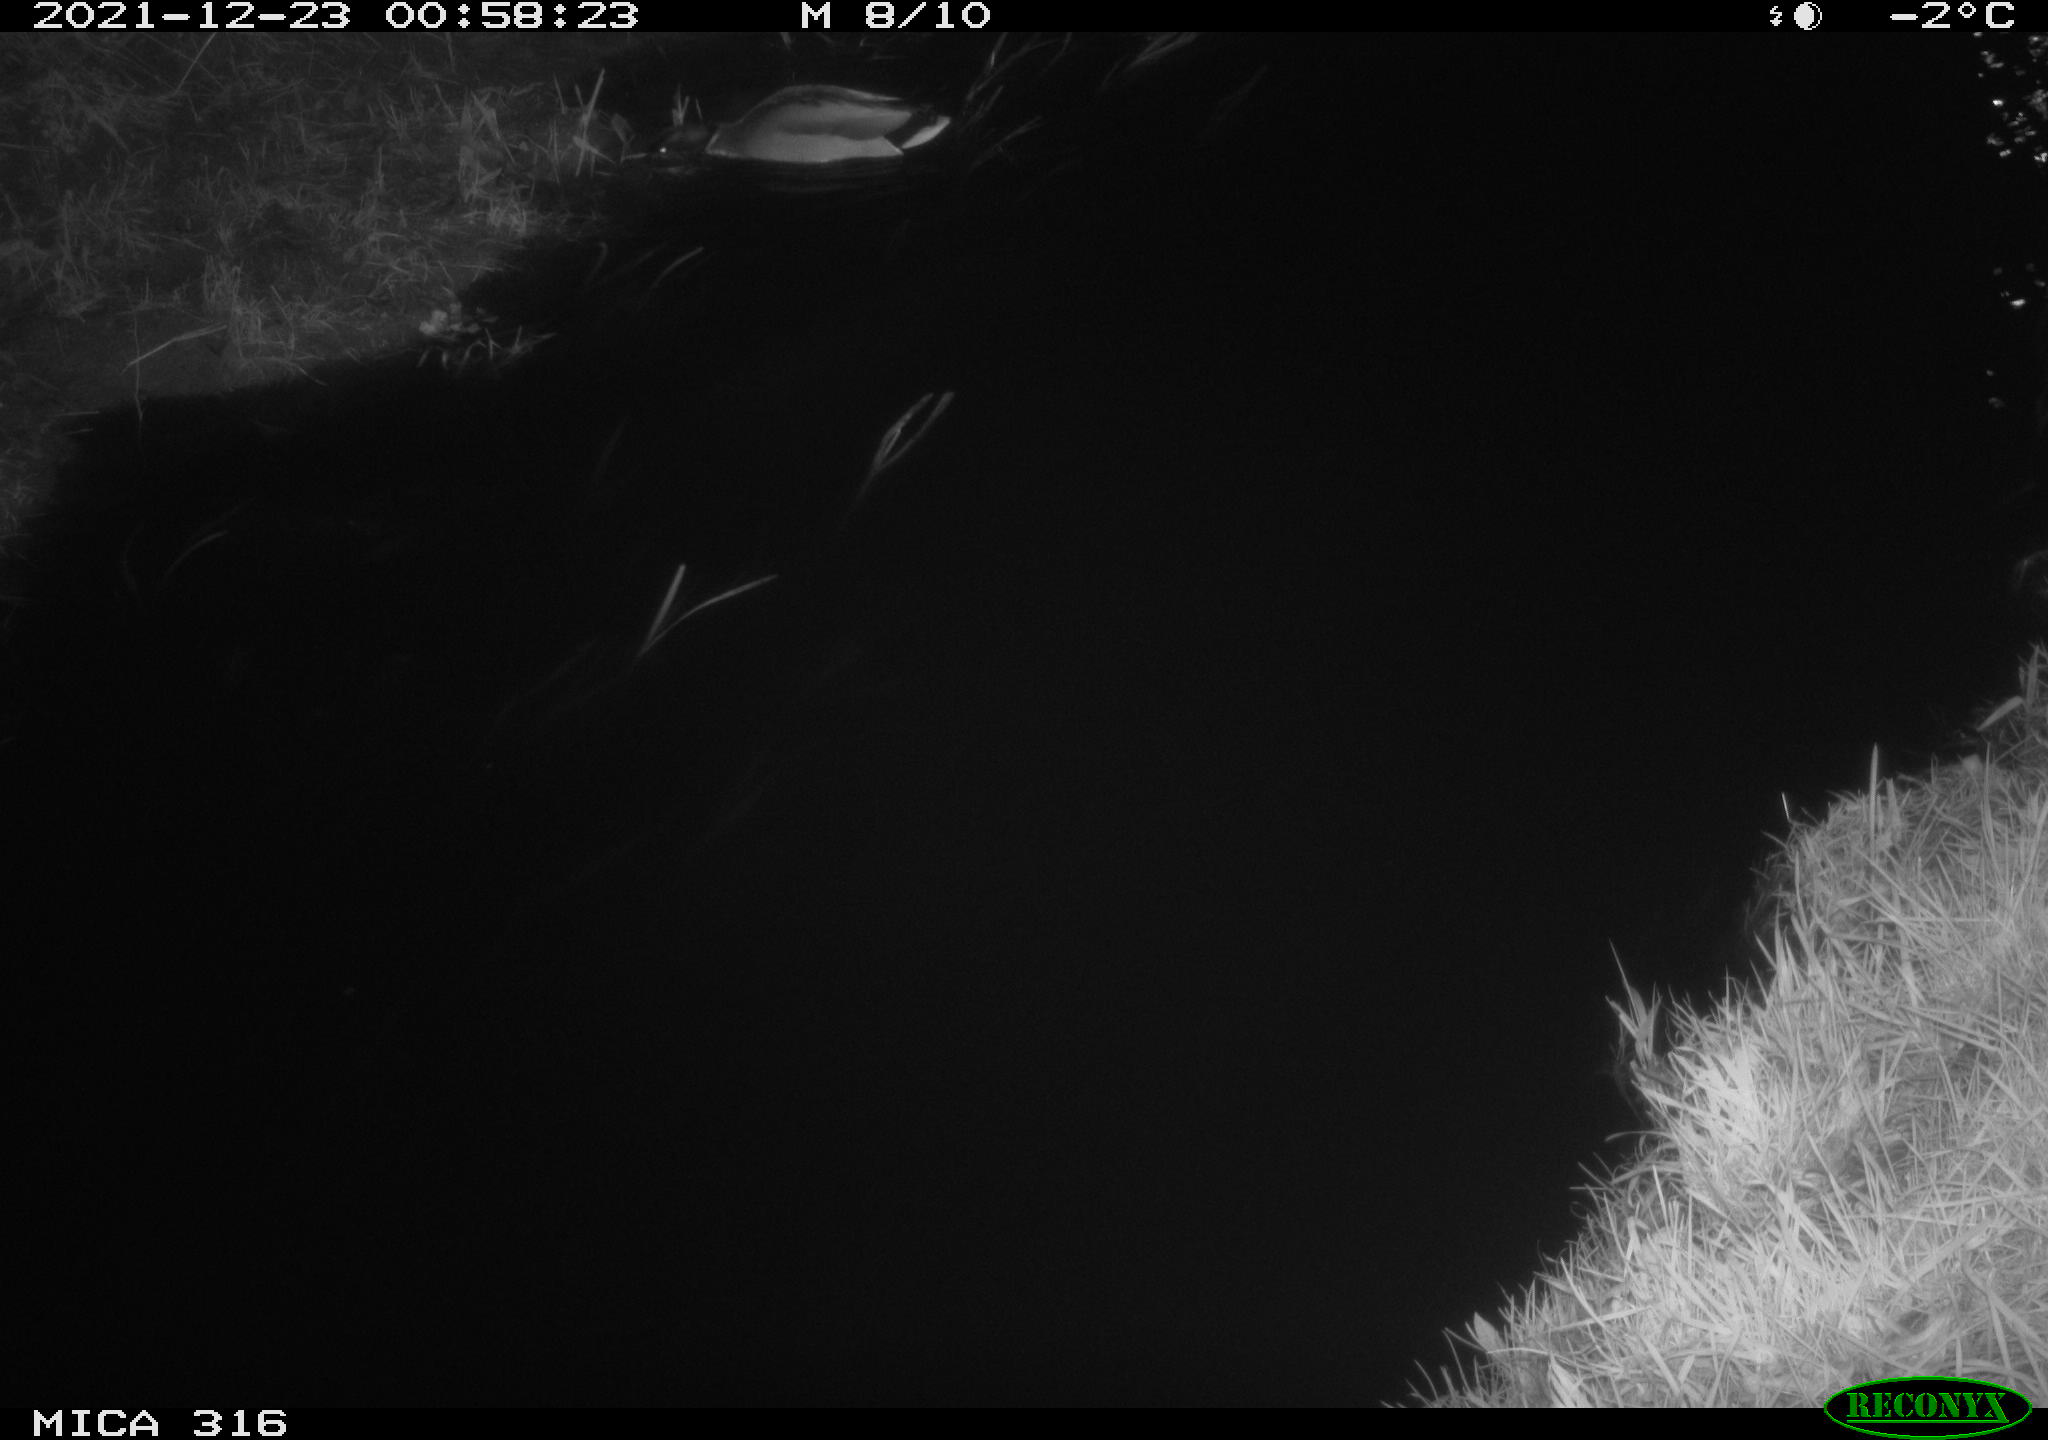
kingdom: Animalia
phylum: Chordata
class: Aves
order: Anseriformes
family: Anatidae
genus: Anas
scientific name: Anas
